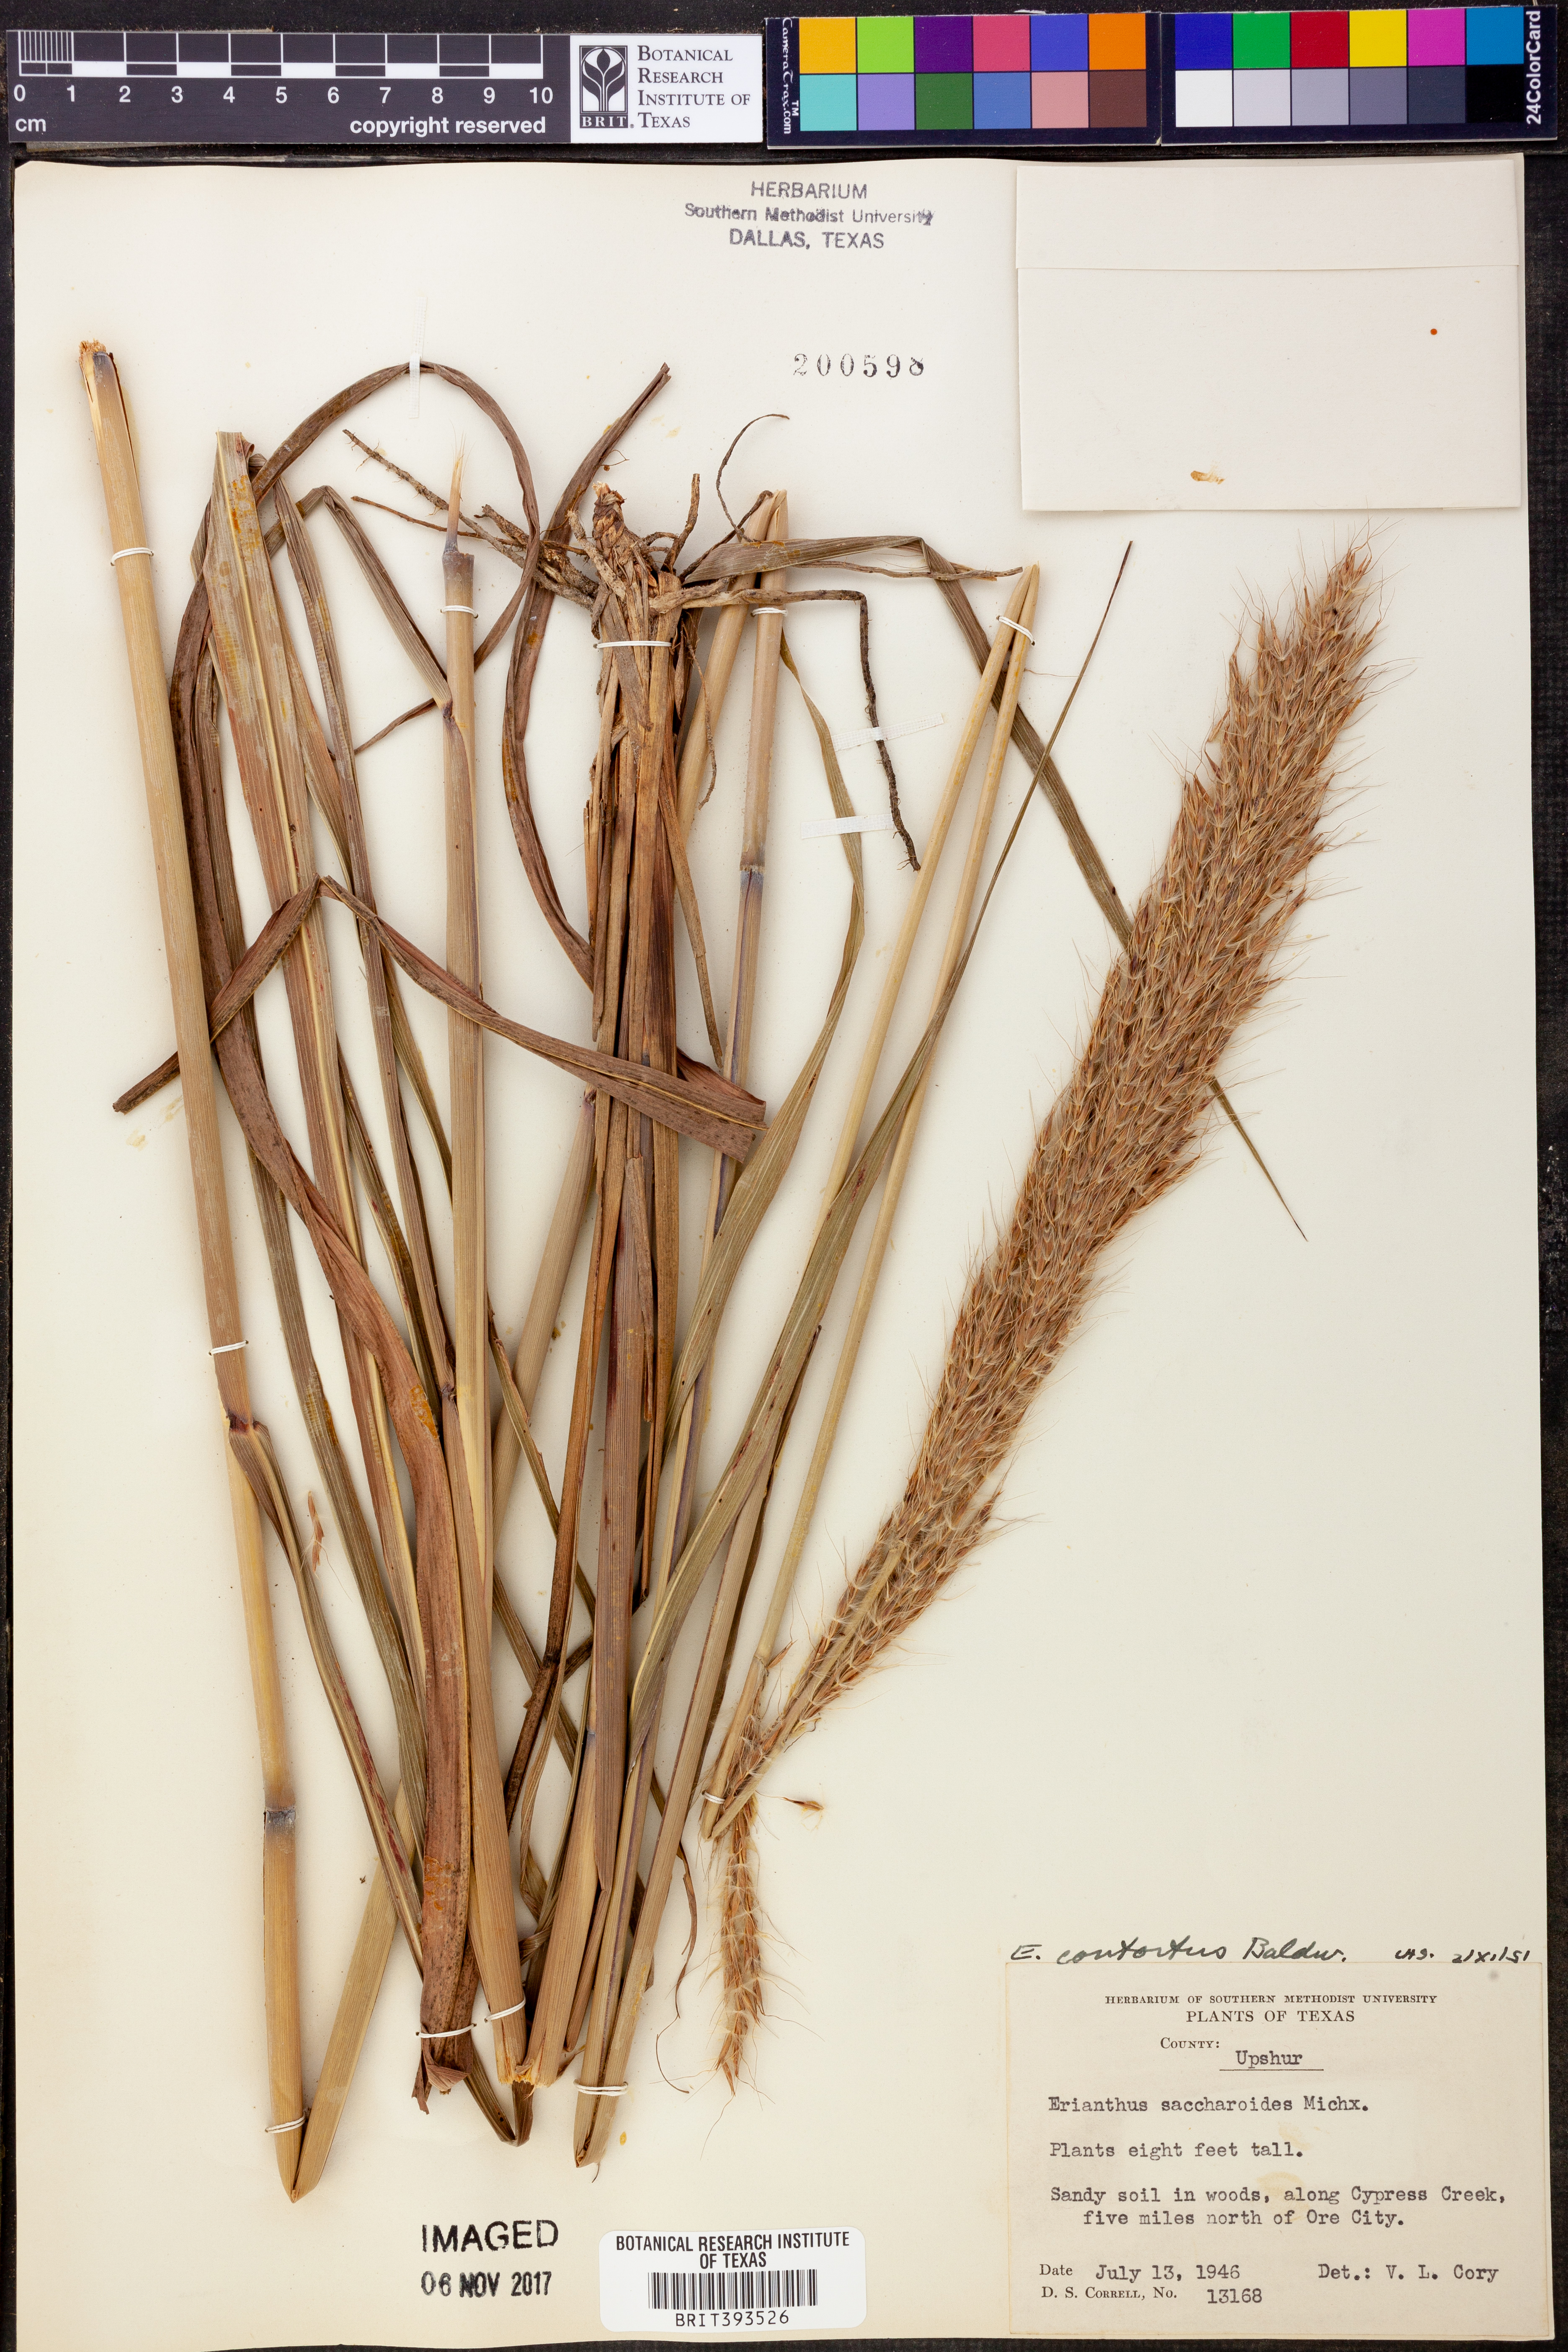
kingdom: Plantae
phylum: Tracheophyta
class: Liliopsida
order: Poales
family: Poaceae
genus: Erianthus
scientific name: Erianthus contortus
